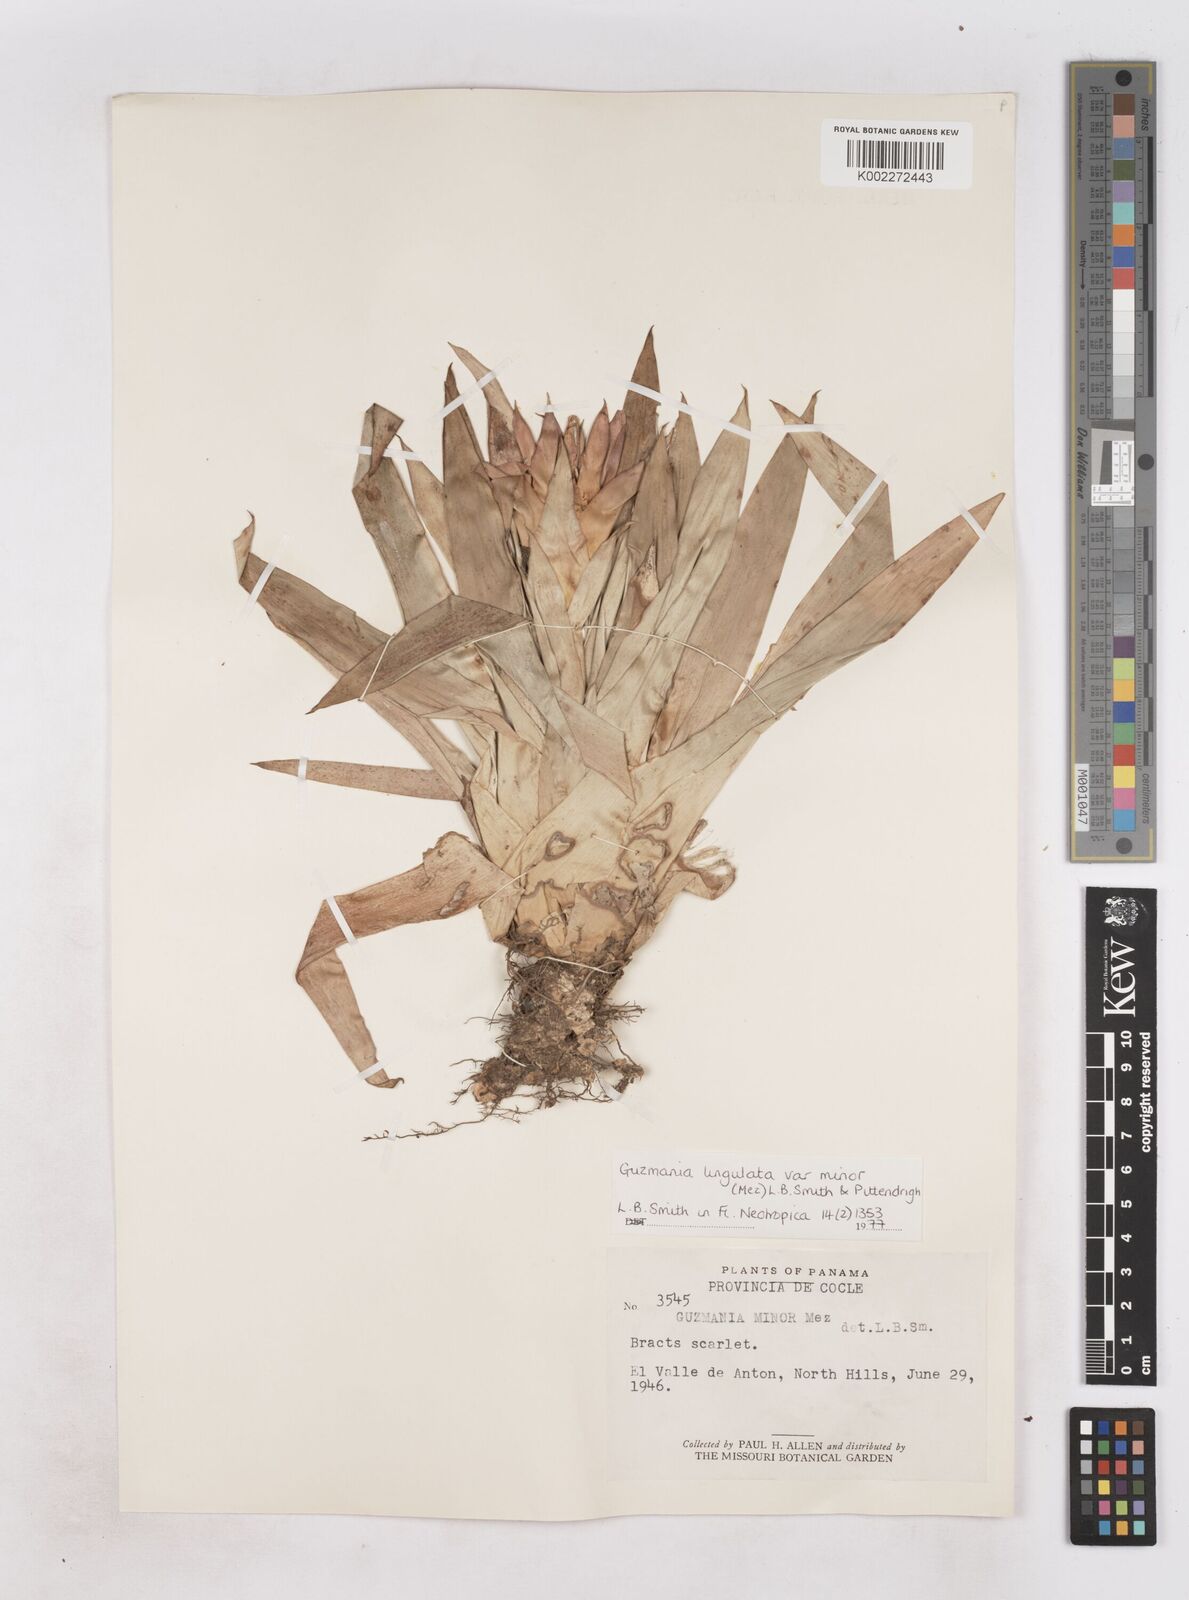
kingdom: Plantae
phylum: Tracheophyta
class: Liliopsida
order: Poales
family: Bromeliaceae
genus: Guzmania
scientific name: Guzmania lingulata
